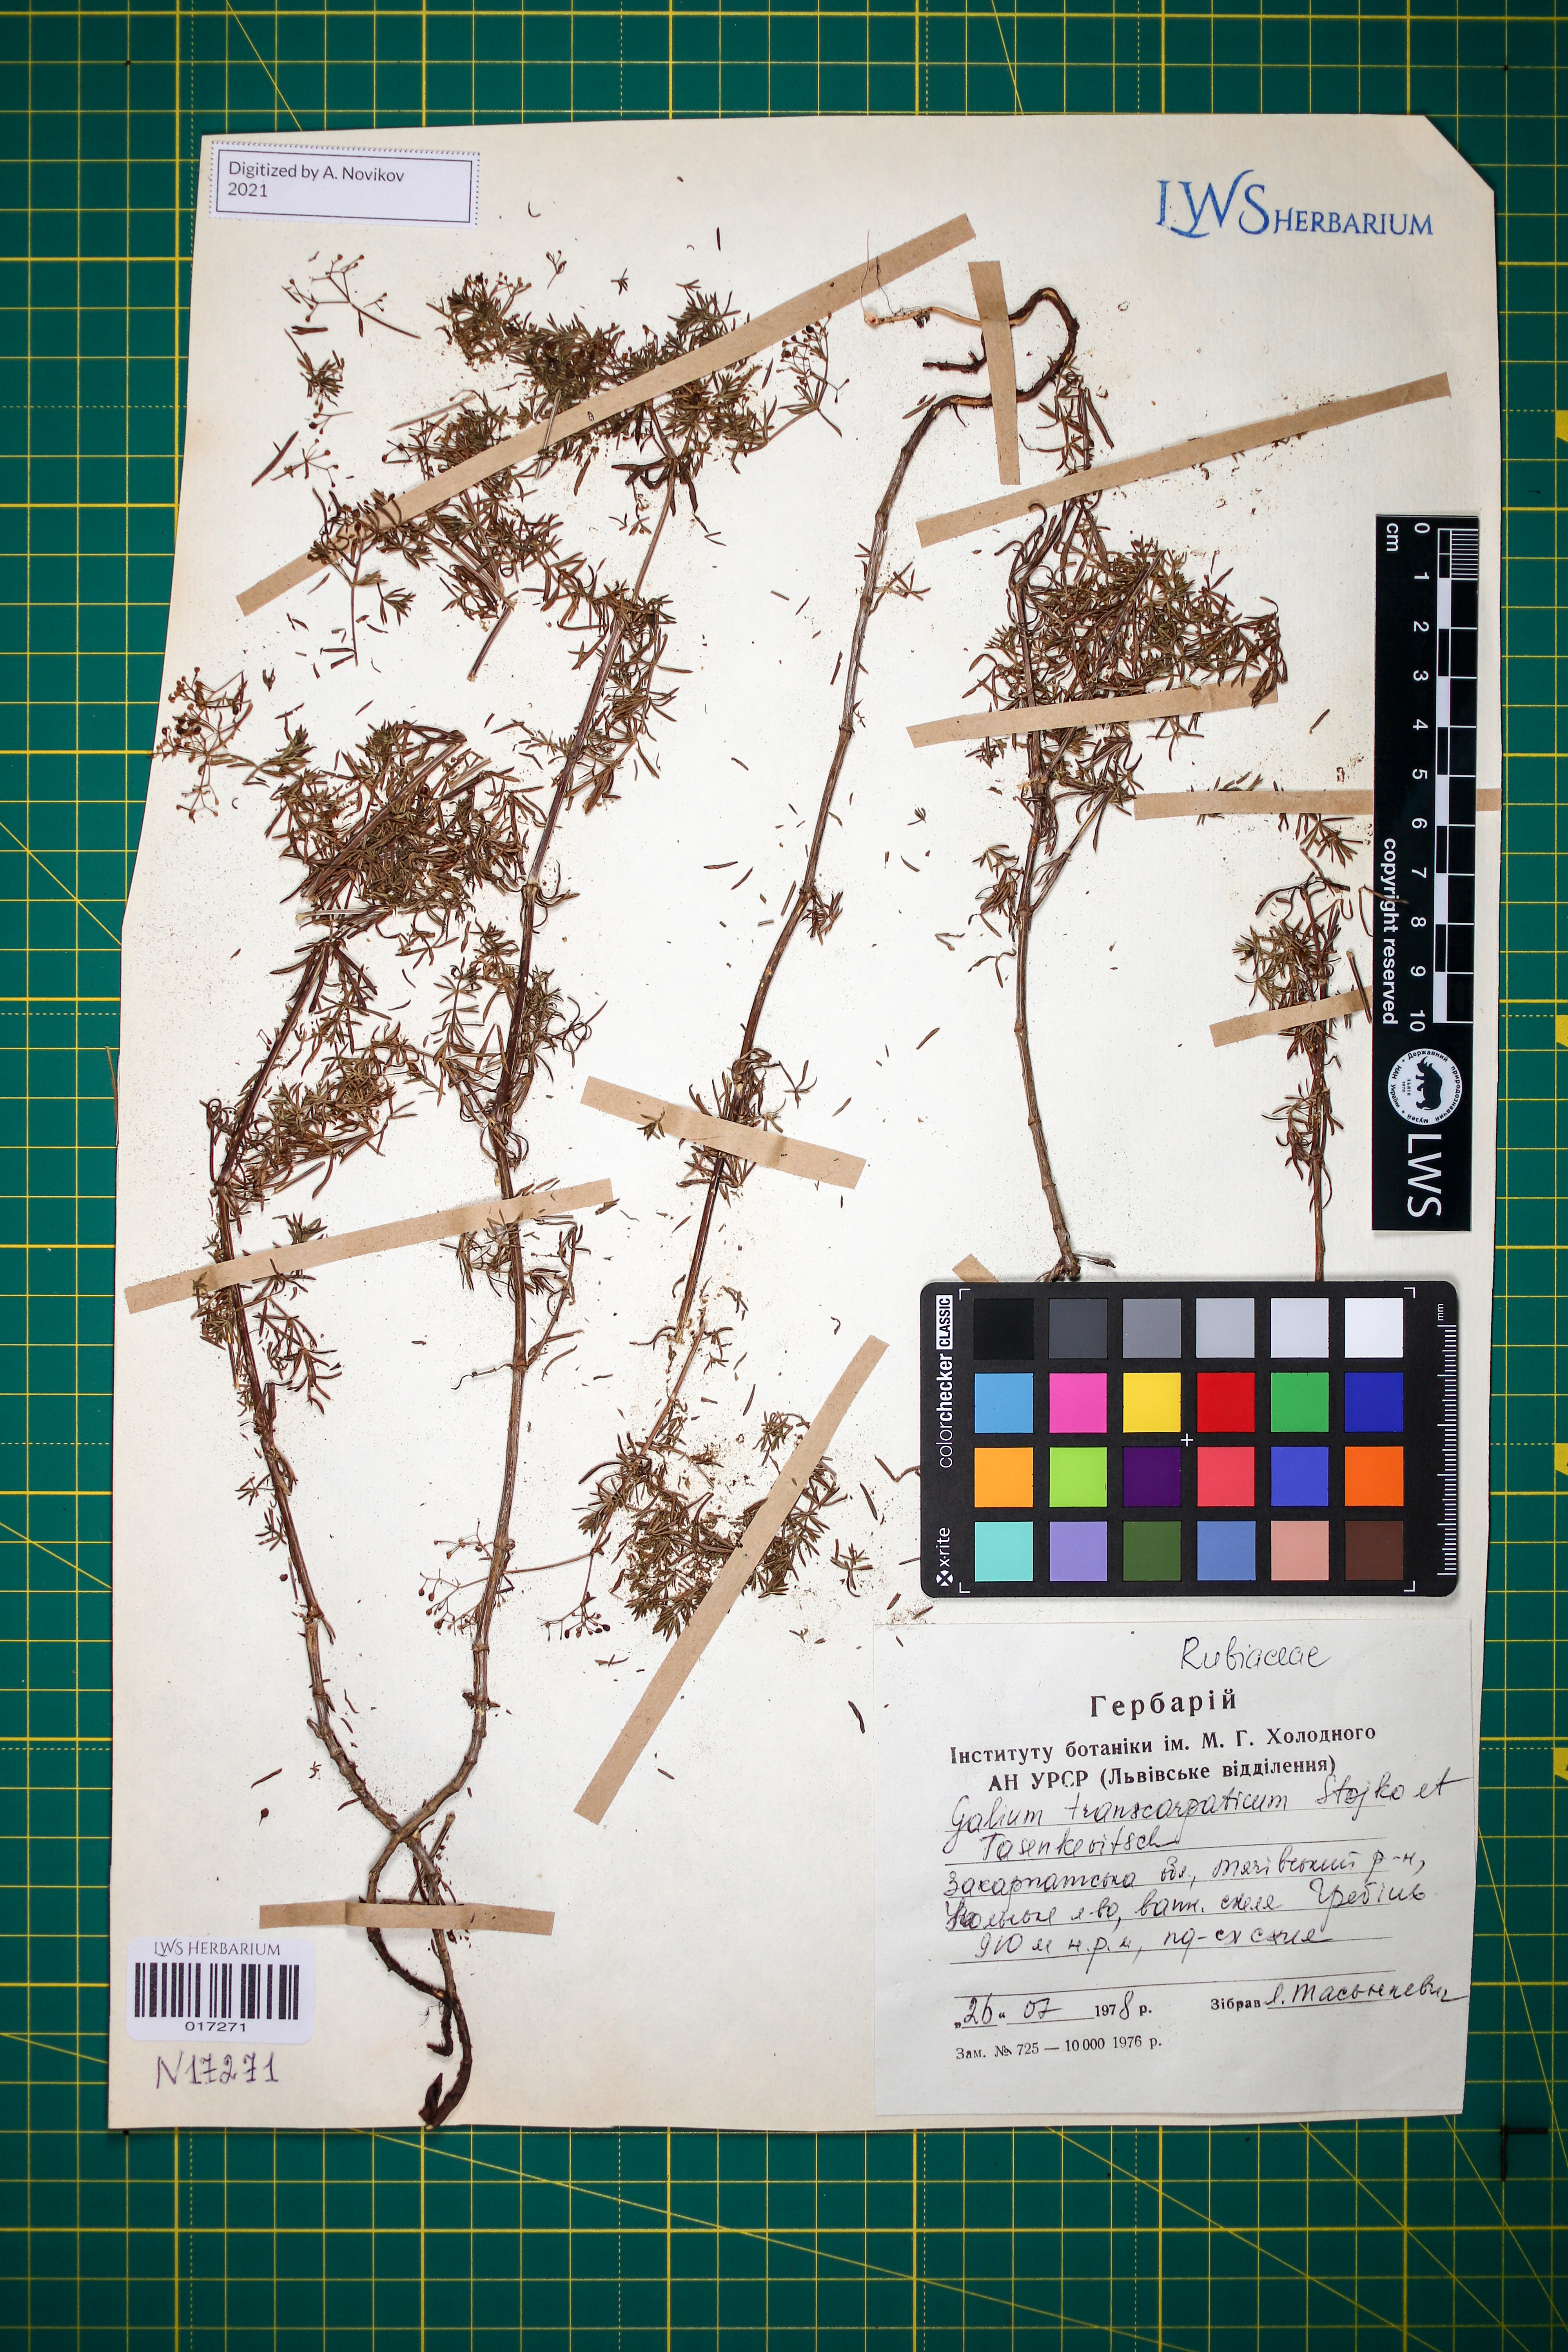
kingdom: Plantae
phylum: Tracheophyta
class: Magnoliopsida
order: Gentianales
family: Rubiaceae
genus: Galium
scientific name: Galium transcarpaticum
